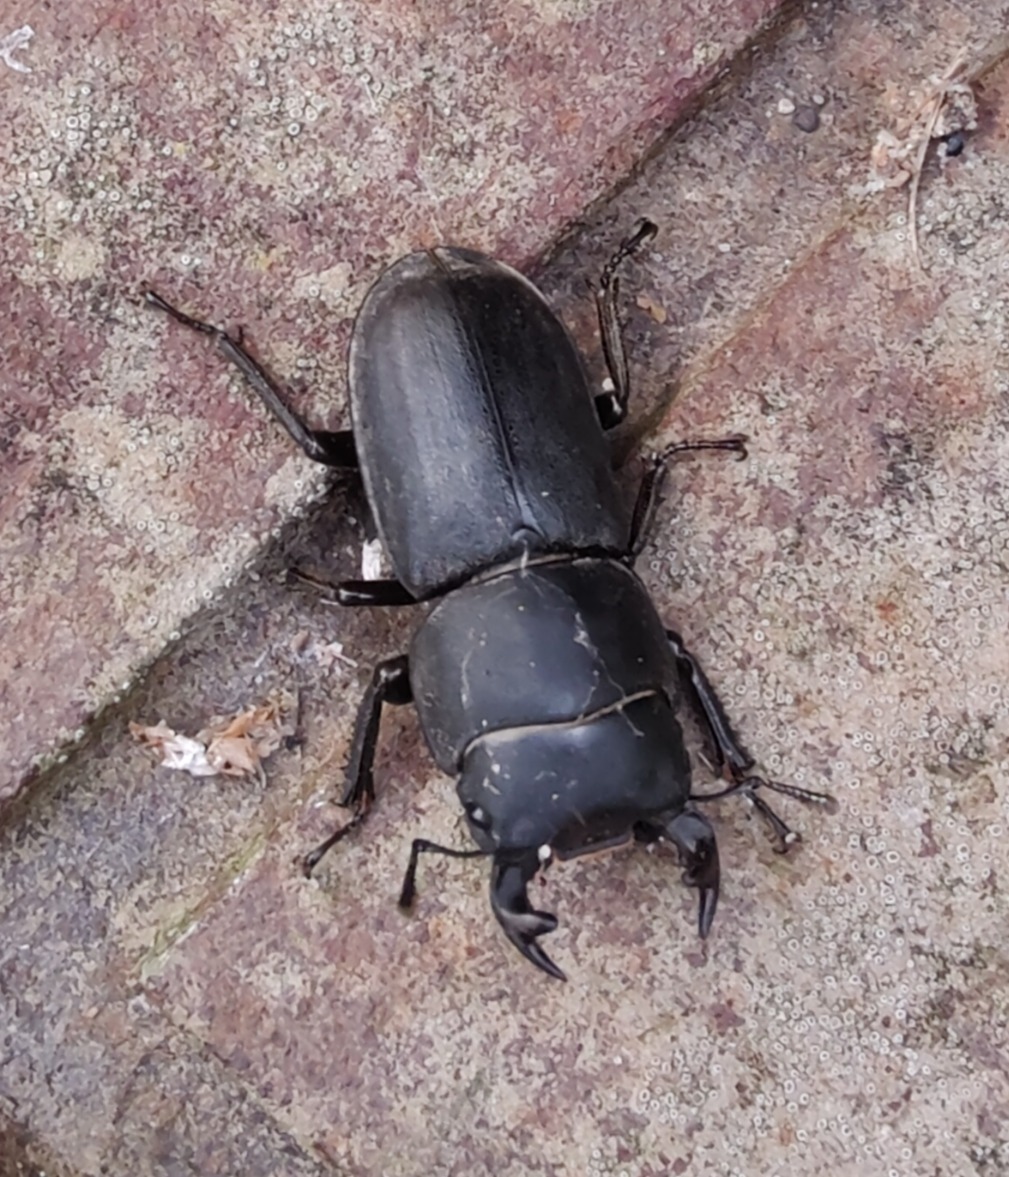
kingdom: Animalia
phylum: Arthropoda
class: Insecta
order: Coleoptera
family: Lucanidae
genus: Dorcus
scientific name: Dorcus parallelipipedus
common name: Bøghjort
